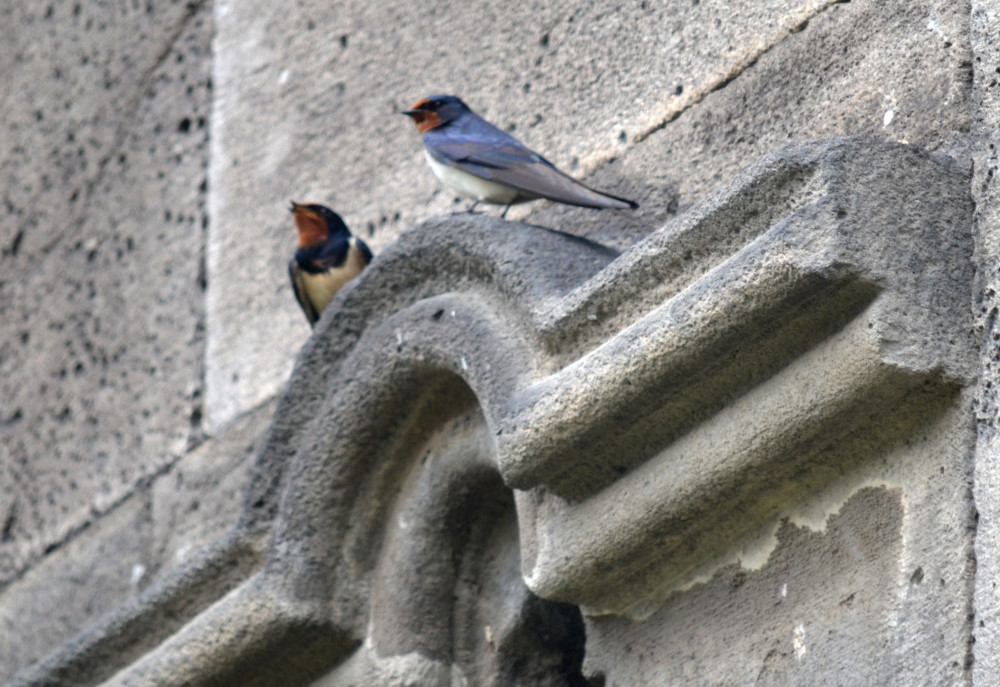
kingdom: Animalia
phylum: Chordata
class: Aves
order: Passeriformes
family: Hirundinidae
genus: Hirundo
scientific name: Hirundo rustica
